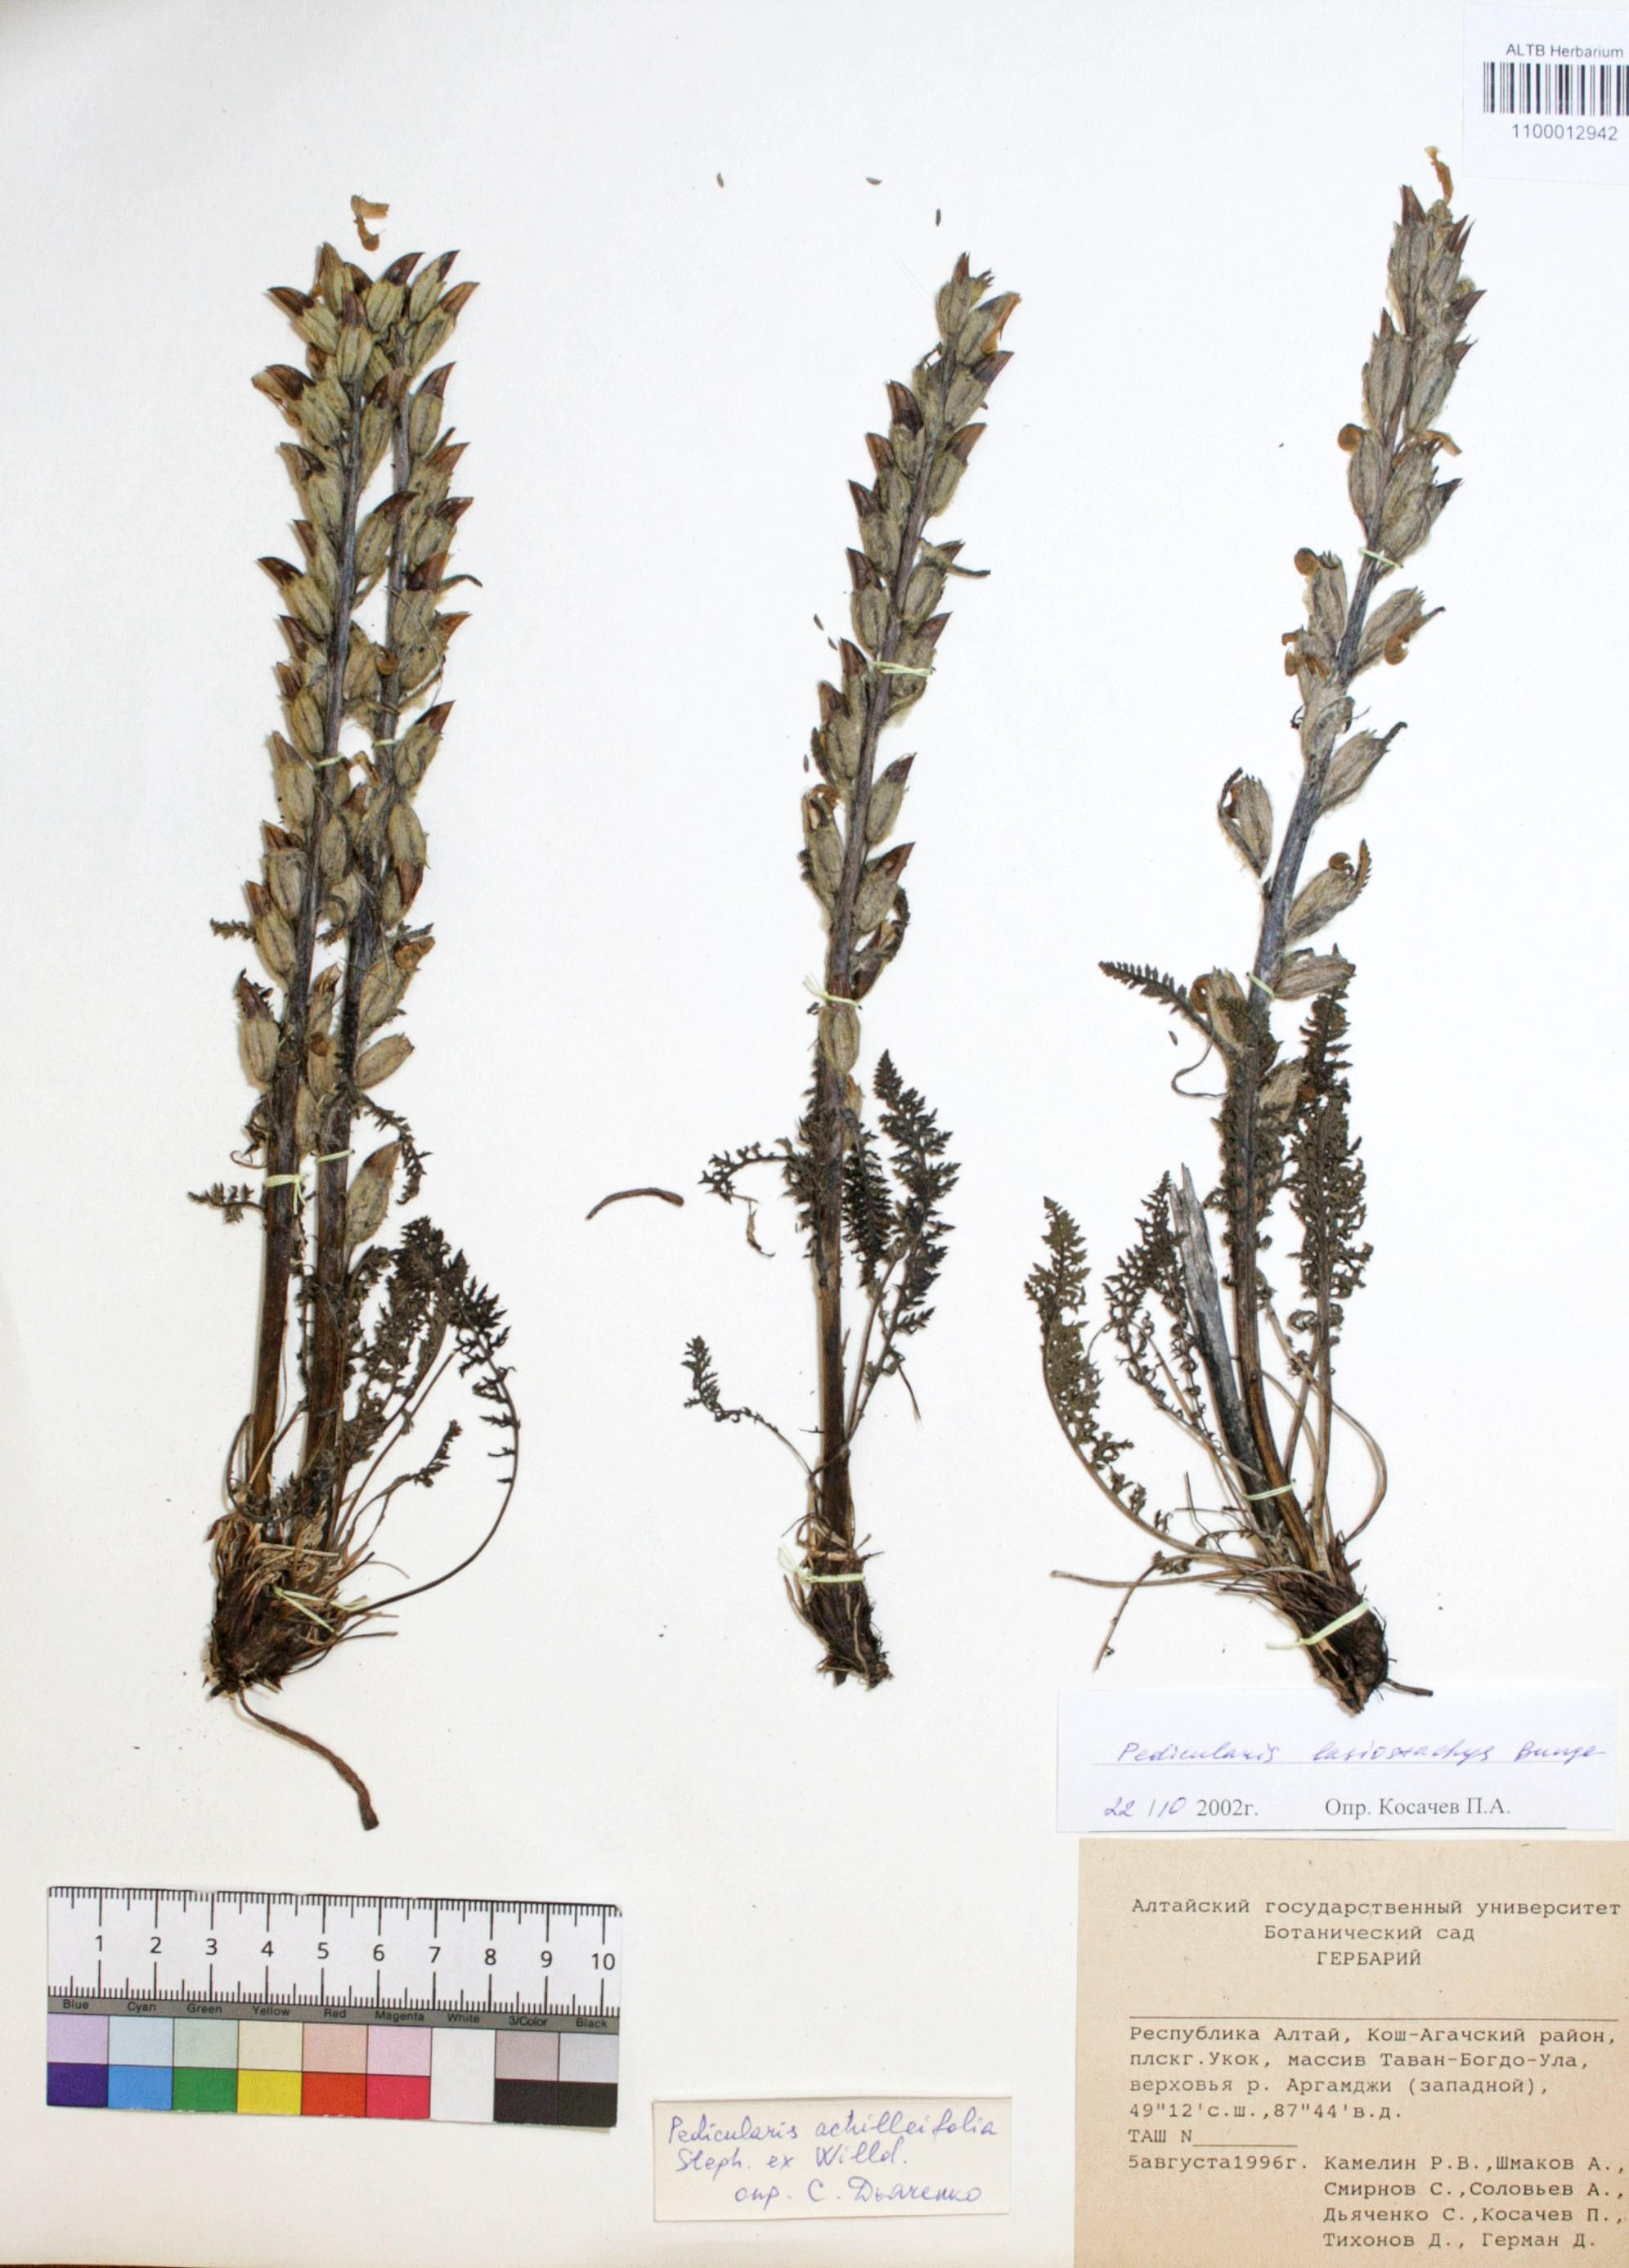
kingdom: Plantae
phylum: Tracheophyta
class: Magnoliopsida
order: Lamiales
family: Orobanchaceae
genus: Pedicularis
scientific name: Pedicularis lasiostachys
